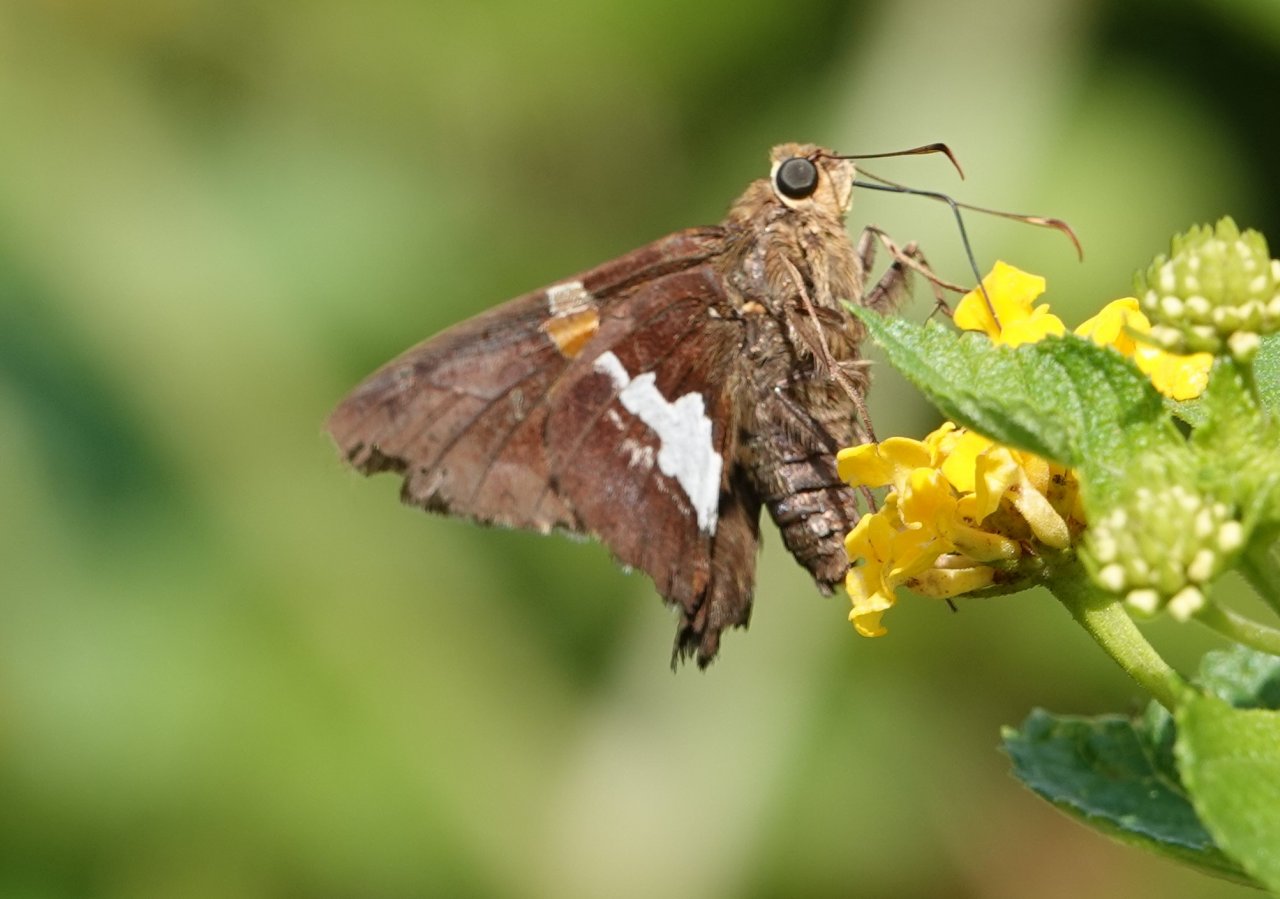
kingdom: Animalia
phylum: Arthropoda
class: Insecta
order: Lepidoptera
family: Hesperiidae
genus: Epargyreus
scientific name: Epargyreus clarus
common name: Silver-spotted Skipper
